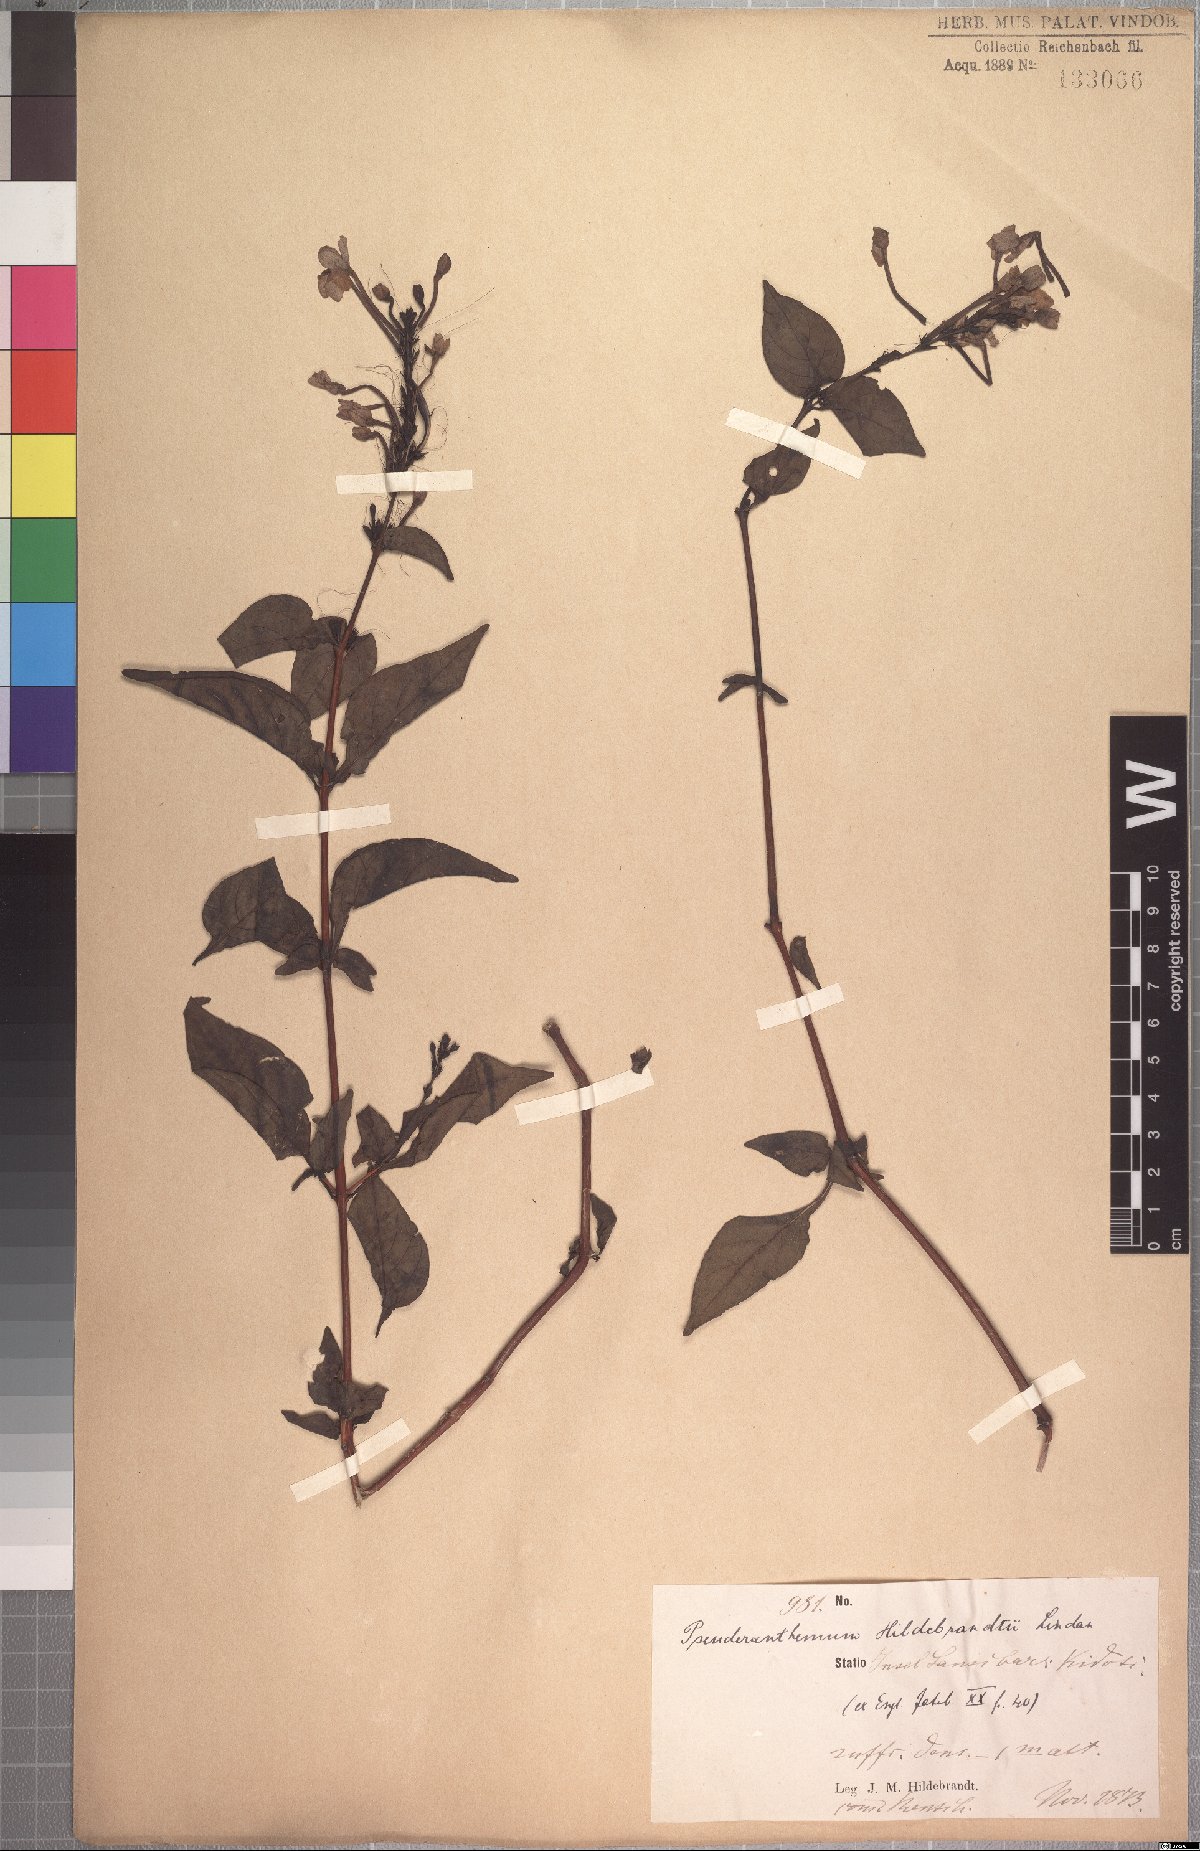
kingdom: Plantae
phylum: Tracheophyta
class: Magnoliopsida
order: Lamiales
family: Acanthaceae
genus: Pseuderanthemum
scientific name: Pseuderanthemum hildebrandtii
